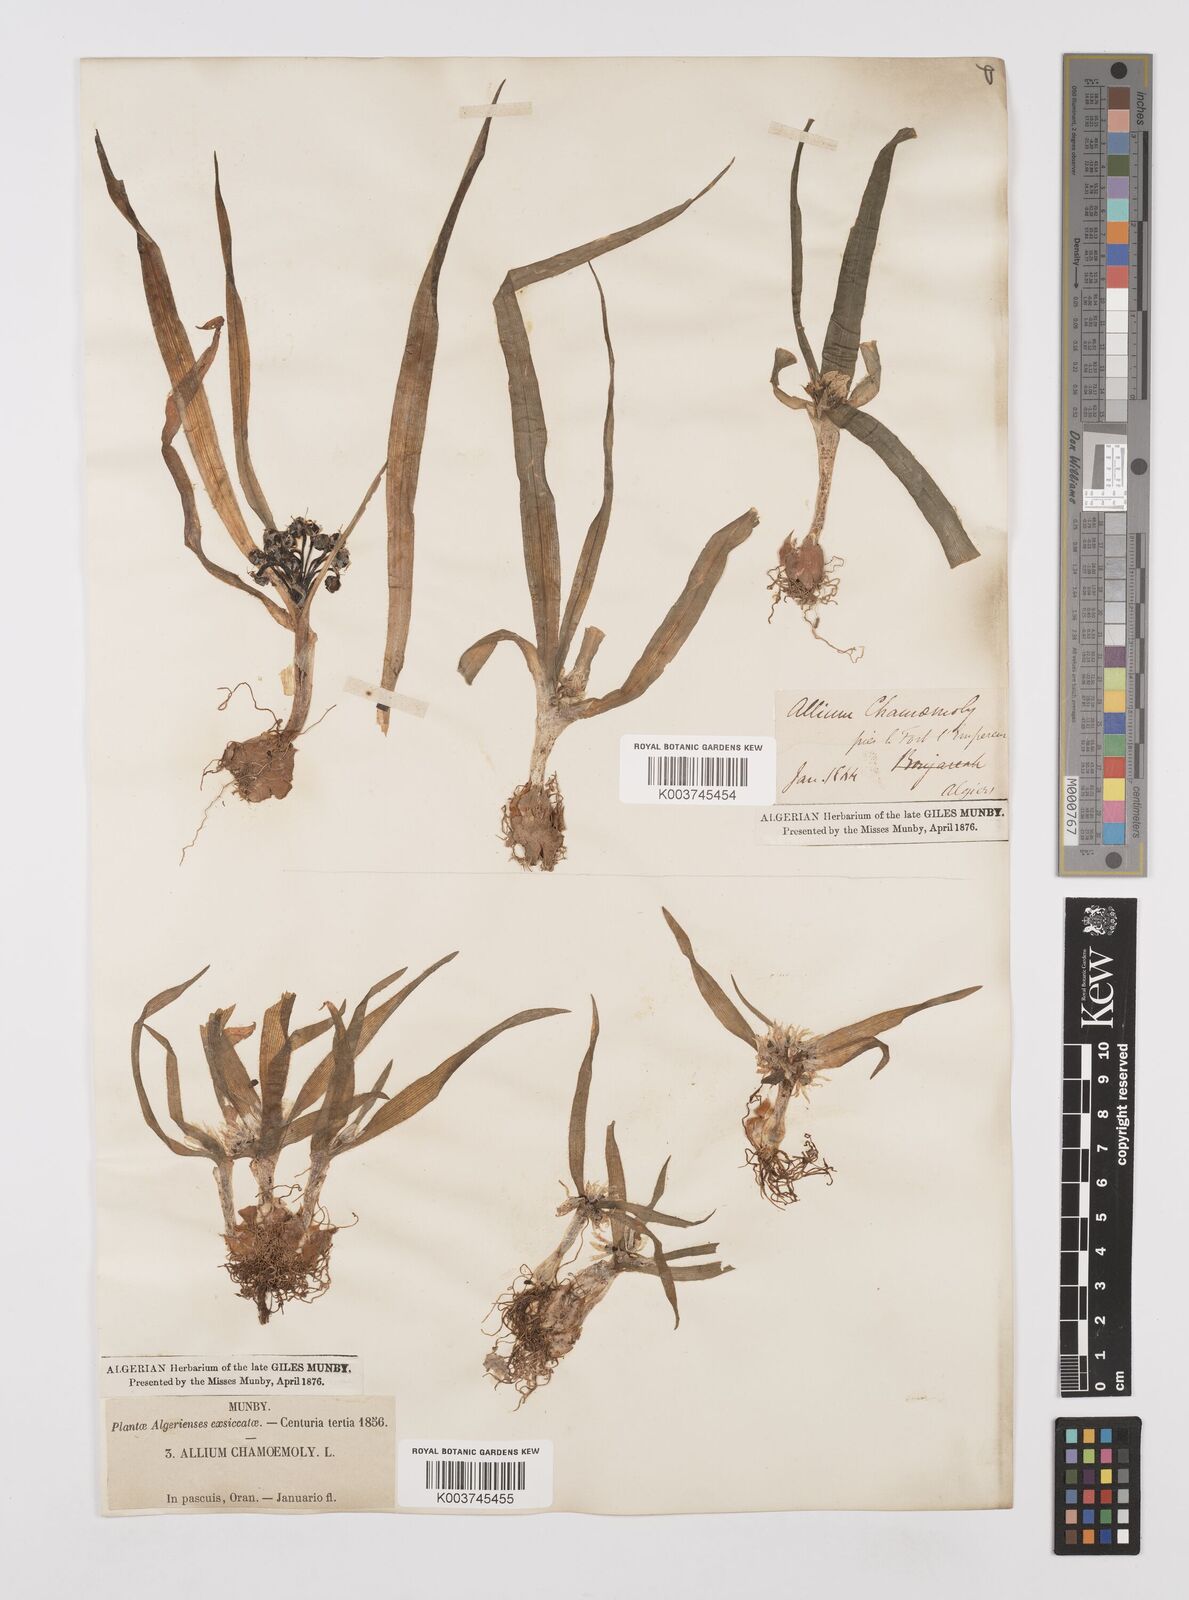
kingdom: Plantae
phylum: Tracheophyta
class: Liliopsida
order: Asparagales
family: Amaryllidaceae
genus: Allium
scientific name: Allium chamaemoly
